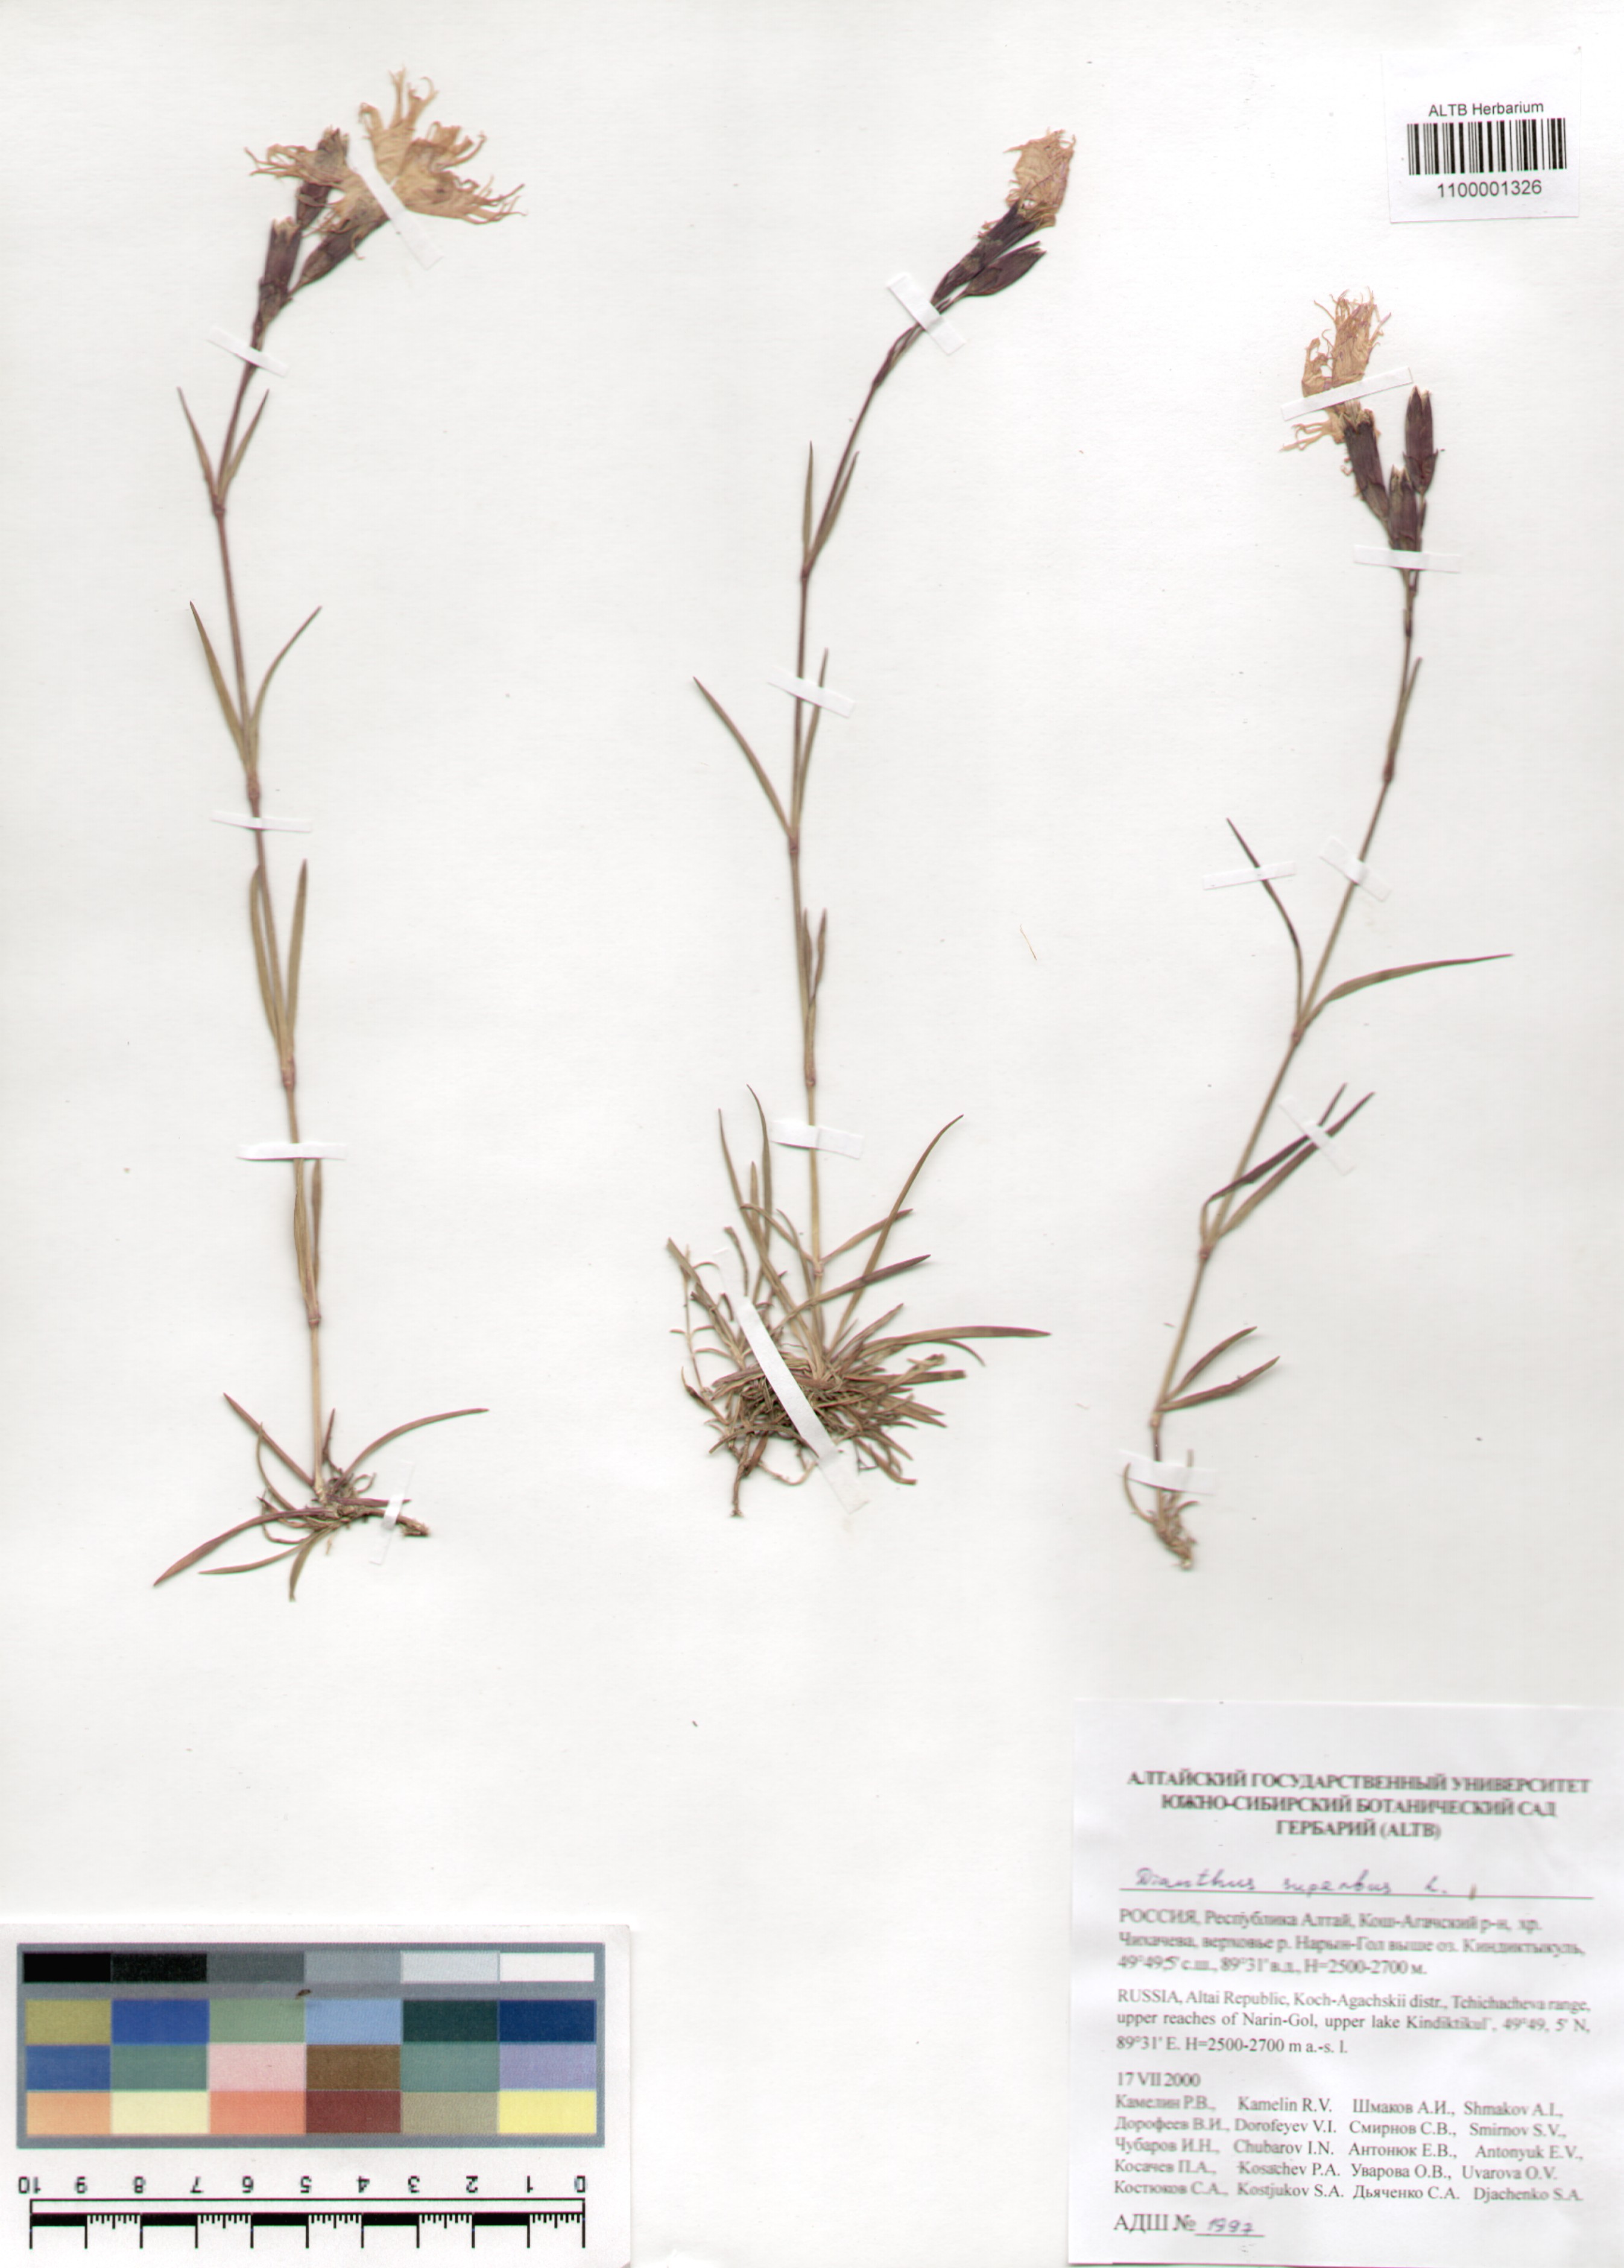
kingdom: Plantae
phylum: Tracheophyta
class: Magnoliopsida
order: Caryophyllales
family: Caryophyllaceae
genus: Dianthus
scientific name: Dianthus superbus
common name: Fringed pink
